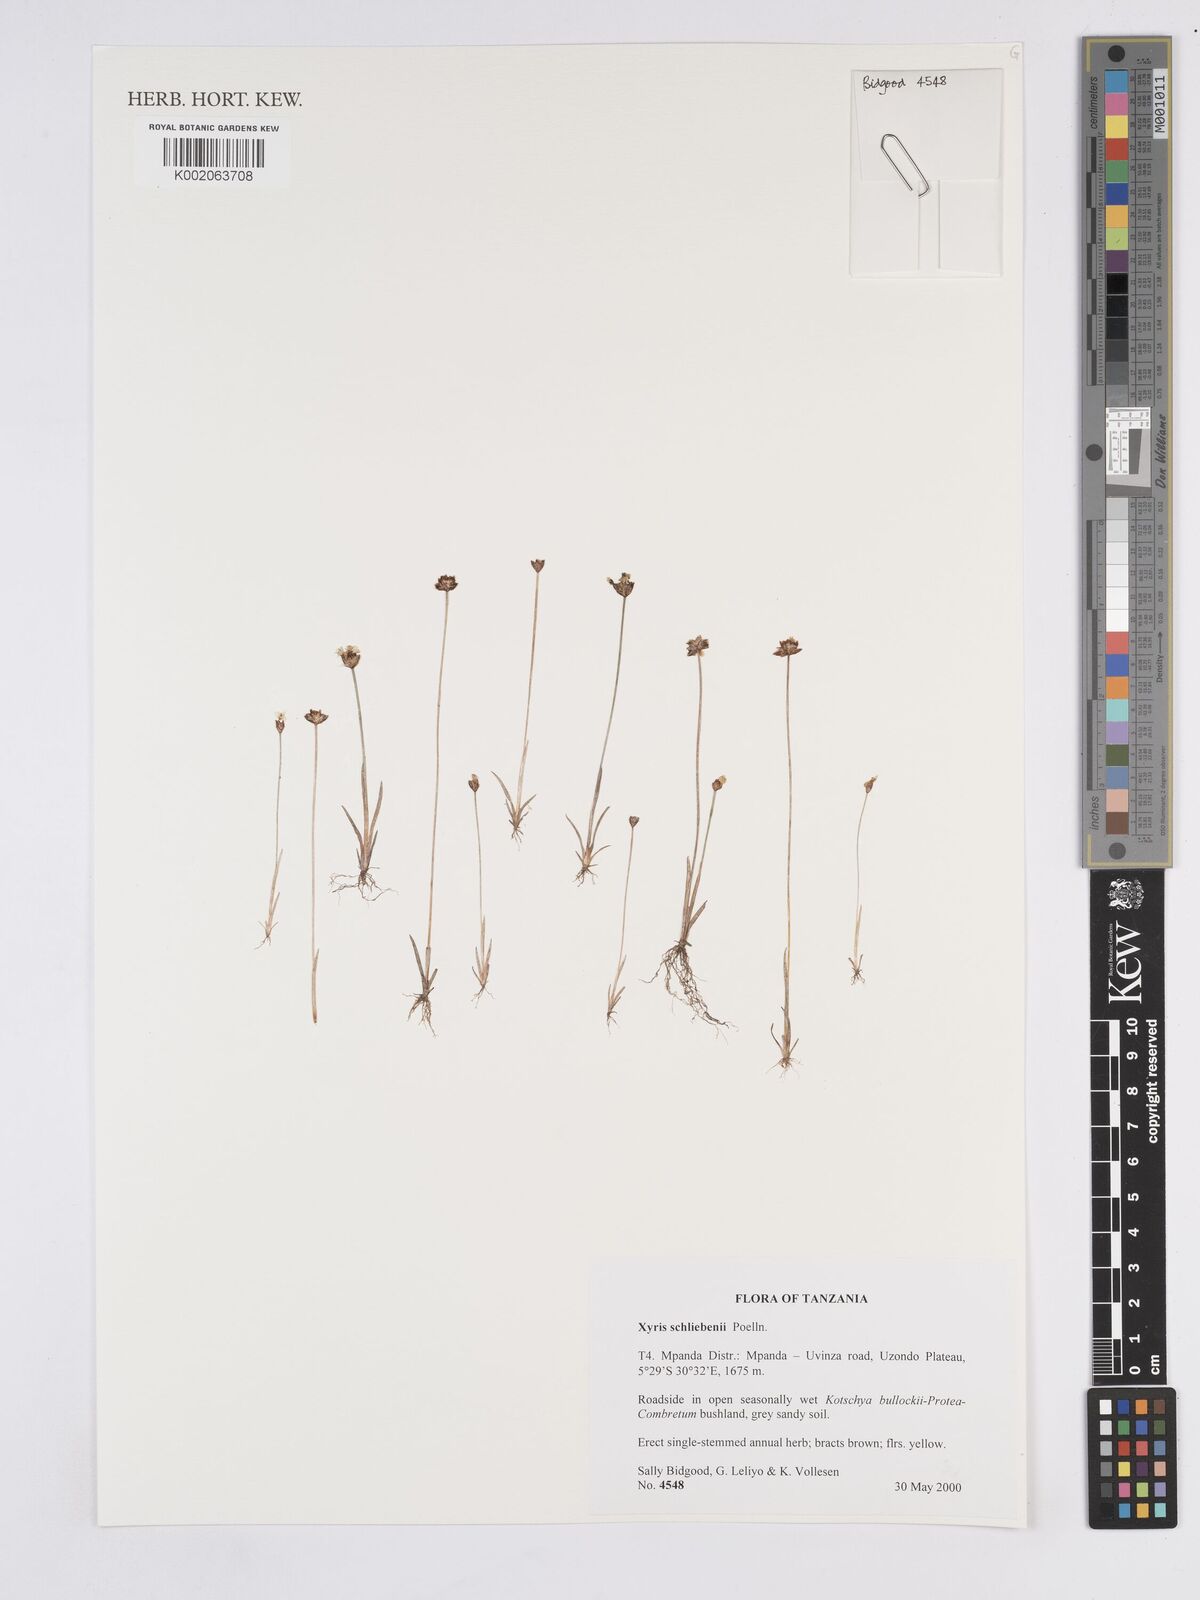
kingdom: Plantae
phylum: Tracheophyta
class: Liliopsida
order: Poales
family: Xyridaceae
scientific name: Xyridaceae
